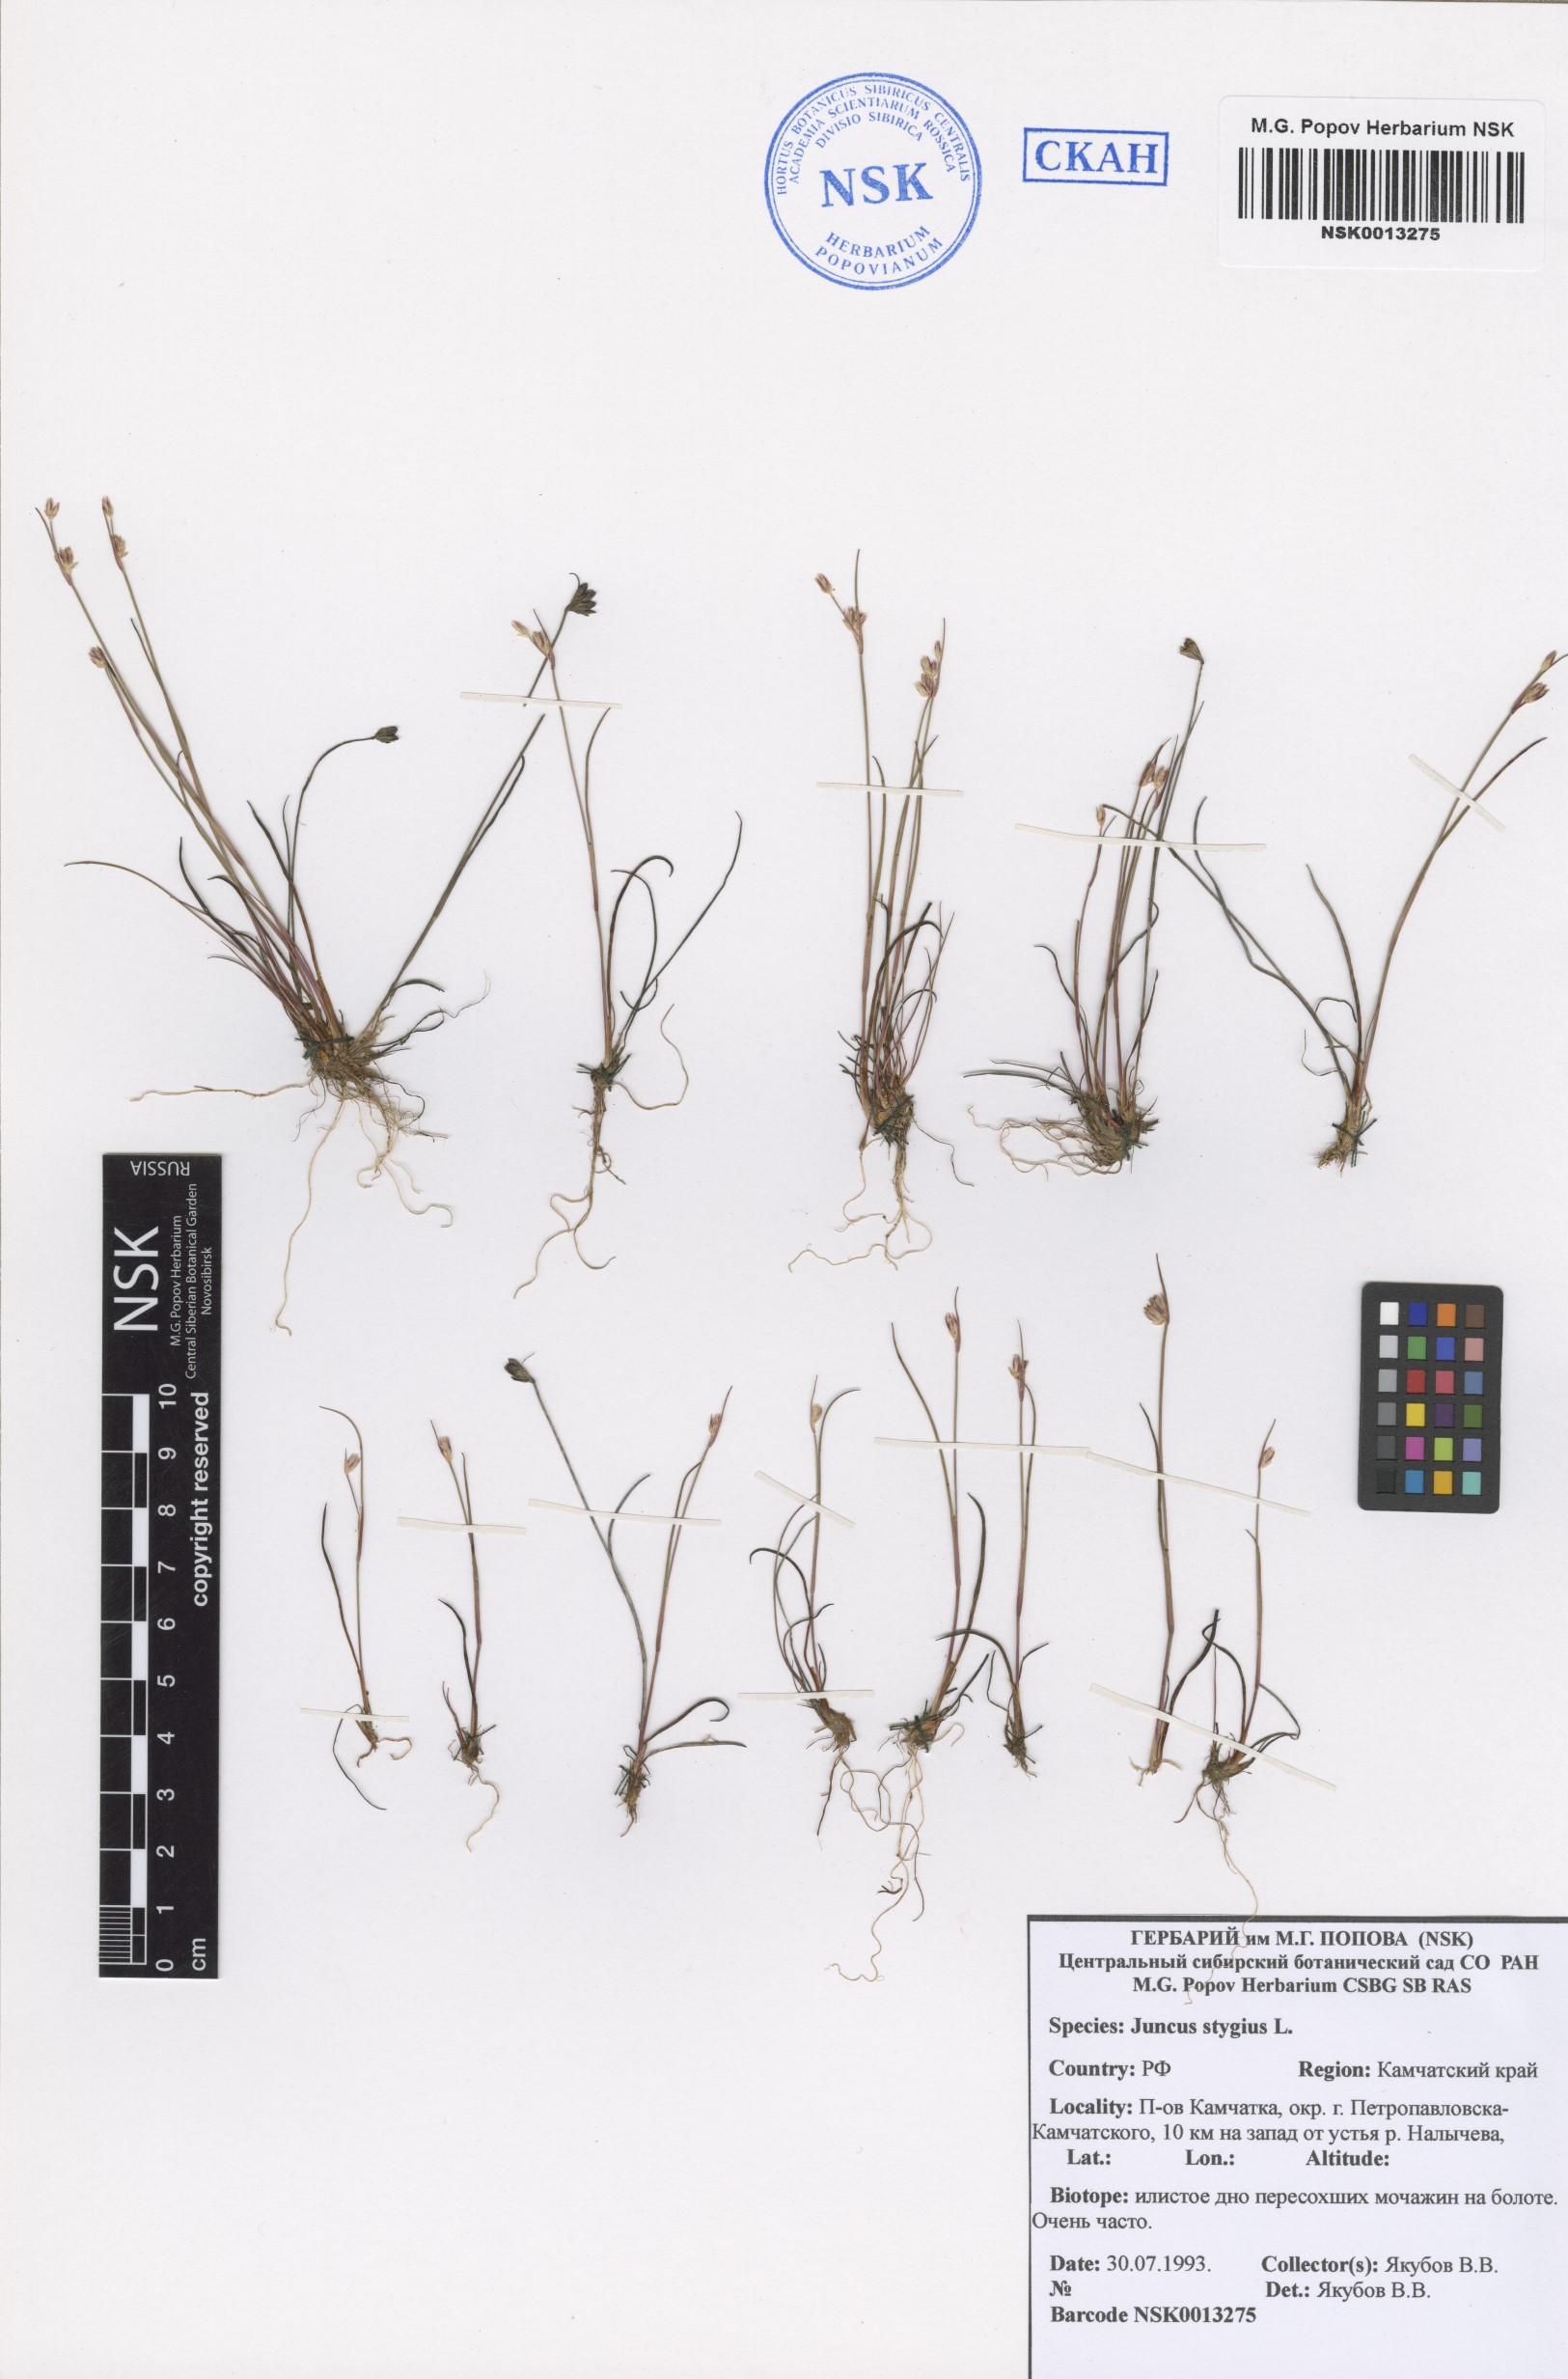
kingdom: Plantae
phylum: Tracheophyta
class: Liliopsida
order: Poales
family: Juncaceae
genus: Juncus
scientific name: Juncus stygius
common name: Bog rush
